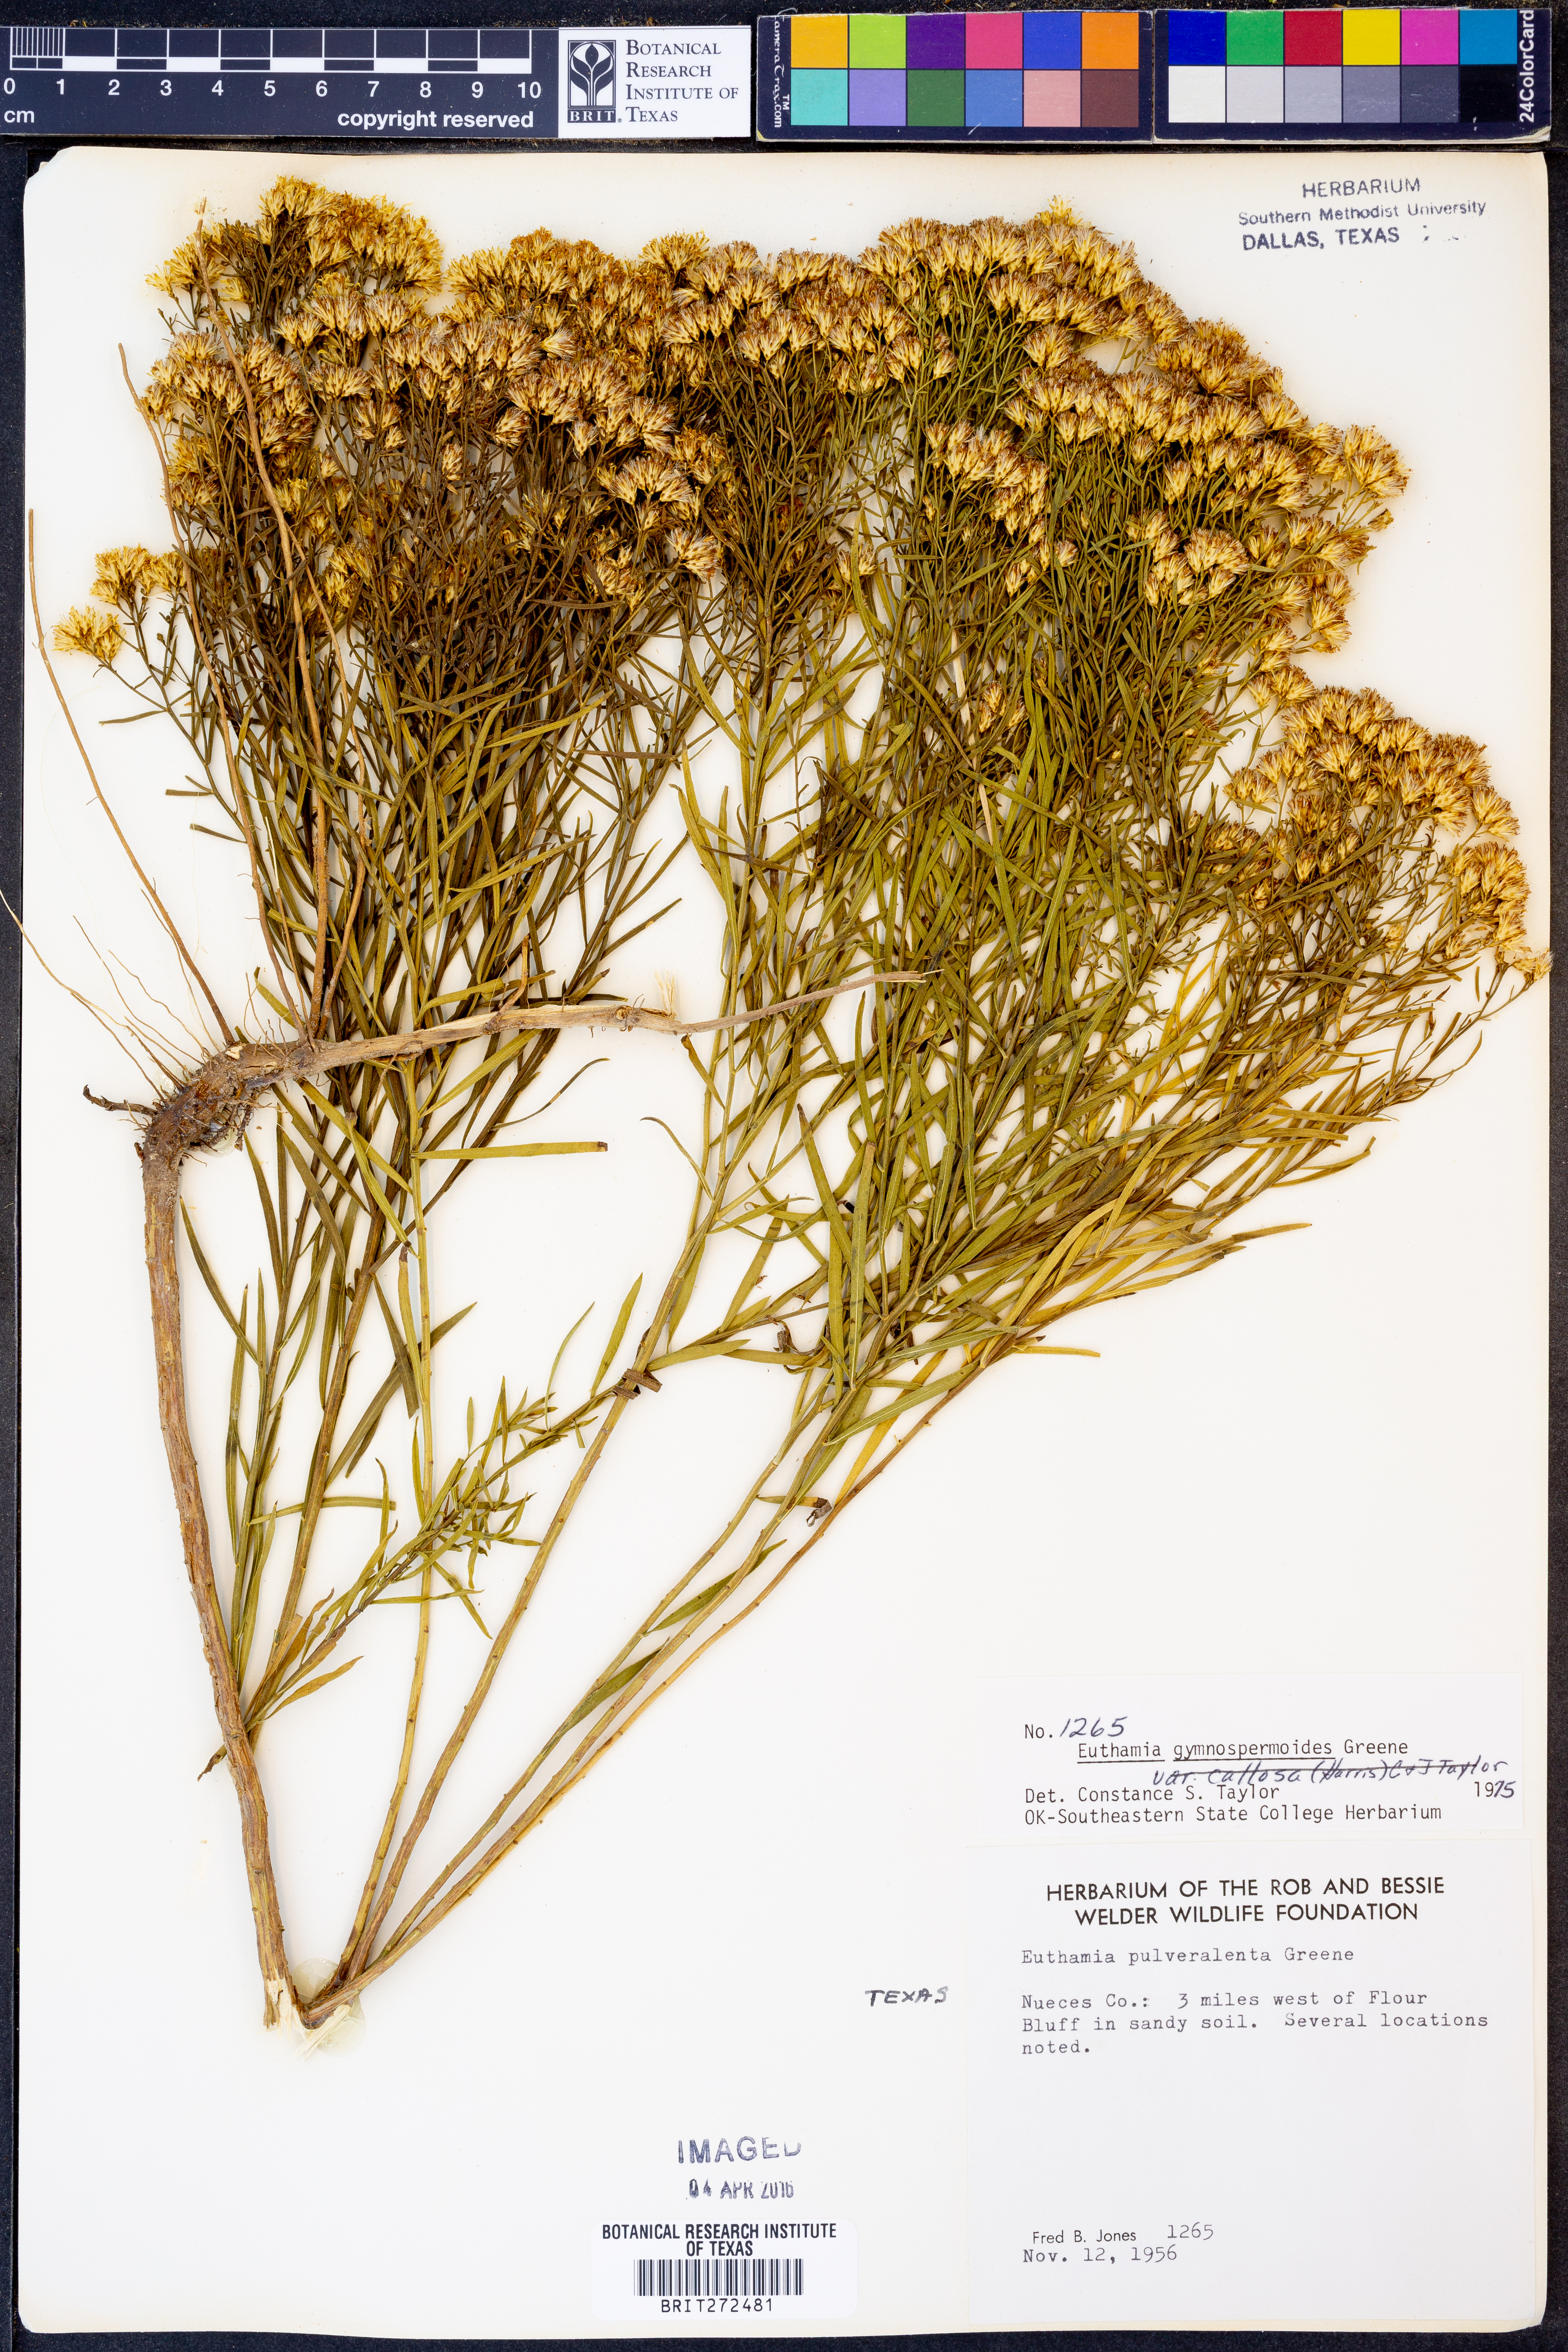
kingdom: Plantae
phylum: Tracheophyta
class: Magnoliopsida
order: Asterales
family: Asteraceae
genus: Euthamia
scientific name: Euthamia gymnospermoides
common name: Great plains goldentop
